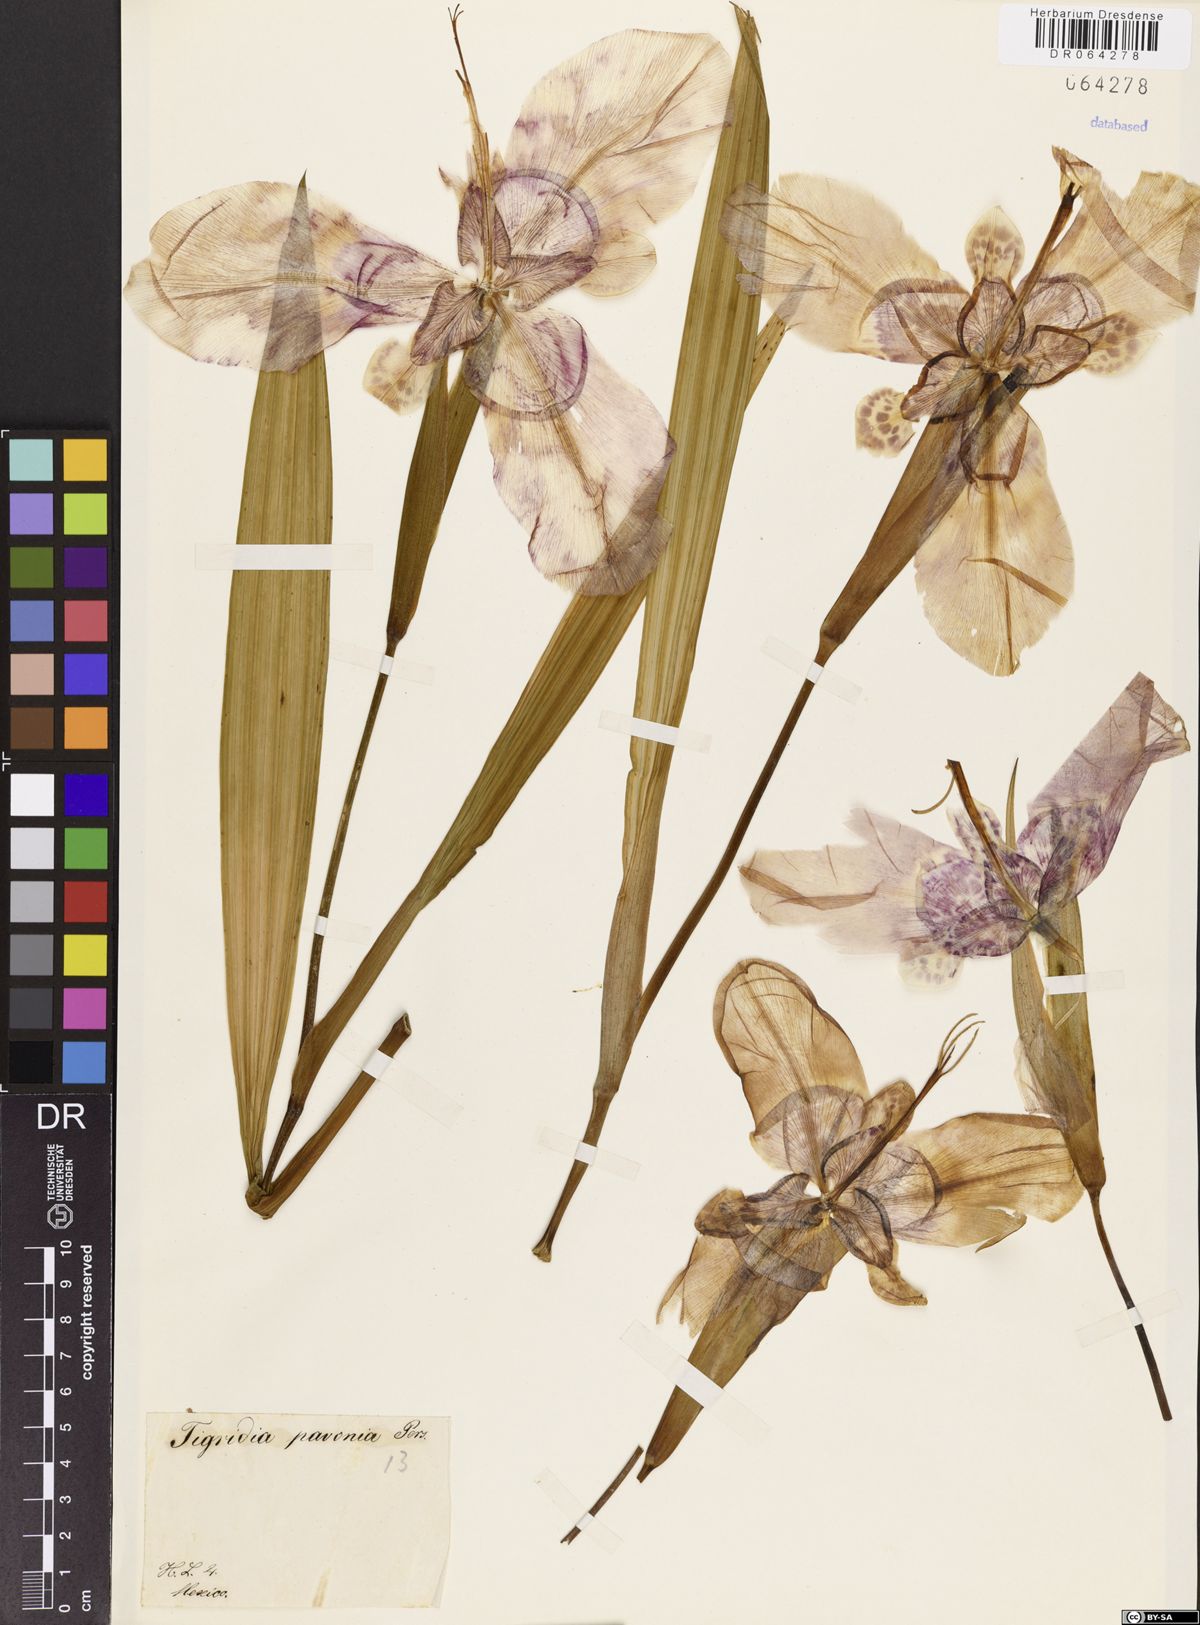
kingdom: Plantae
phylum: Tracheophyta
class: Liliopsida
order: Asparagales
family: Iridaceae
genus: Tigridia
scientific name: Tigridia pavonia
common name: Peacock-flower
